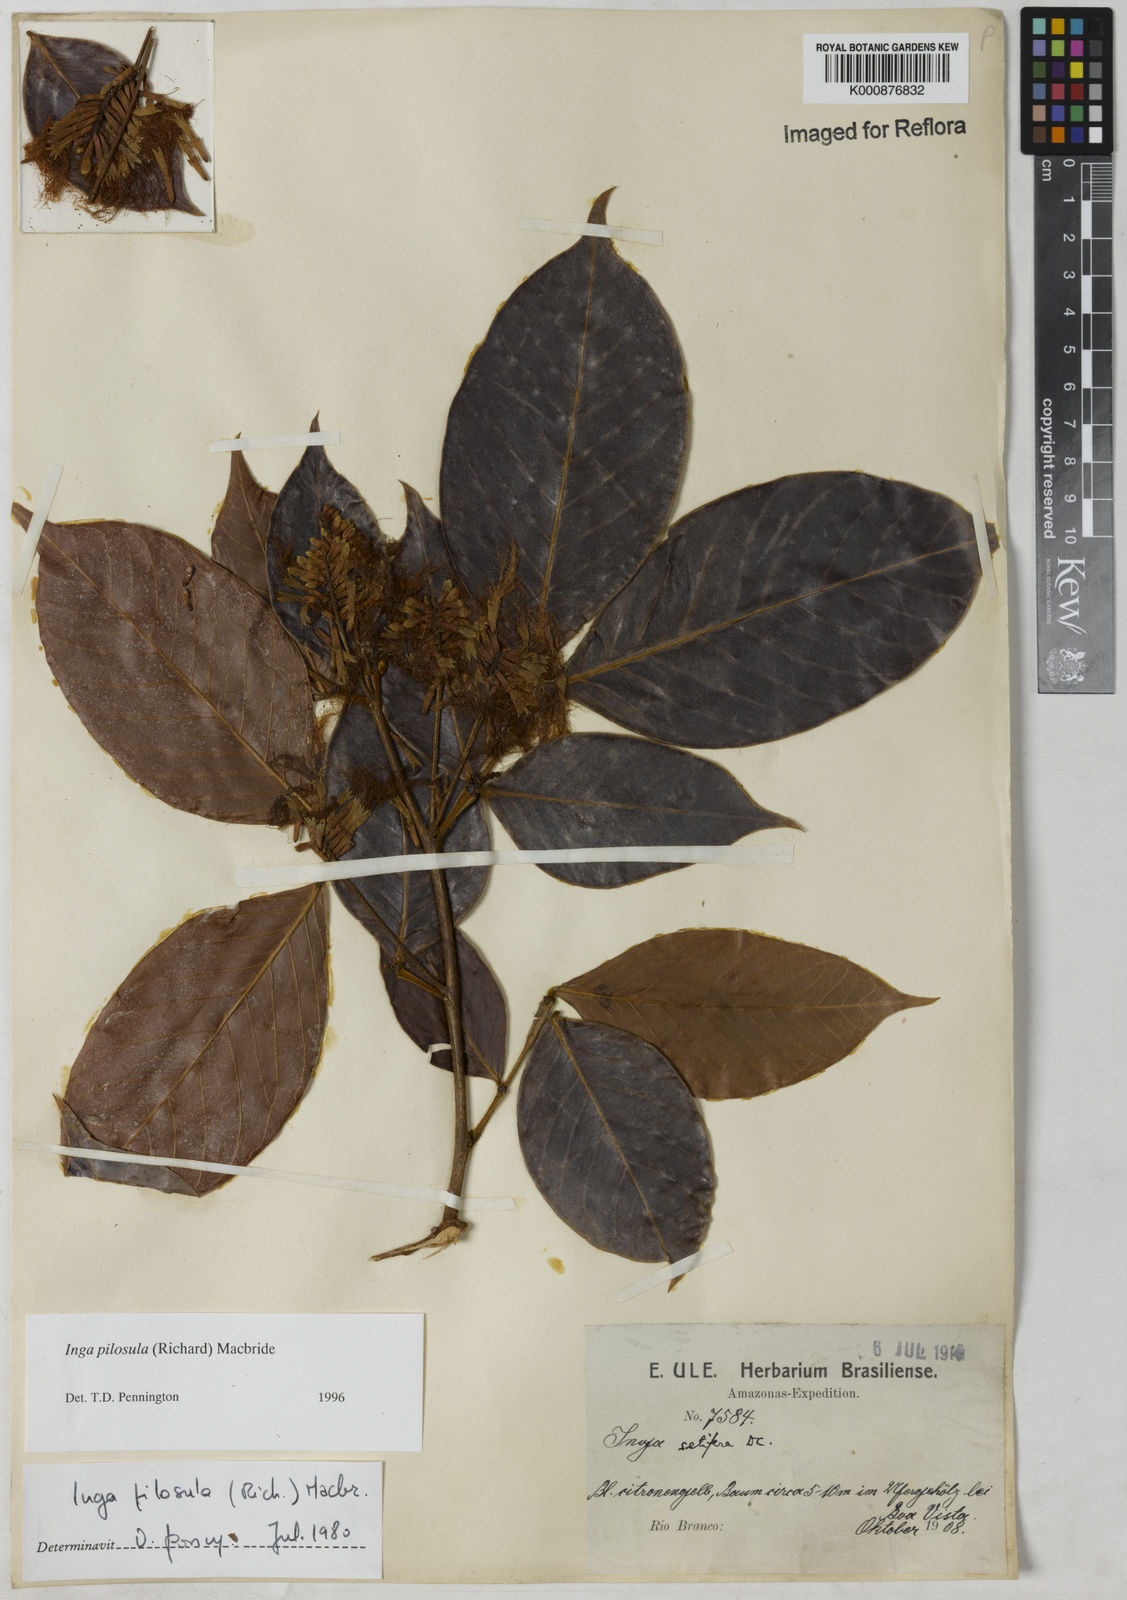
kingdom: Plantae
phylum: Tracheophyta
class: Magnoliopsida
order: Fabales
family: Fabaceae
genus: Inga
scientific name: Inga pilosula
